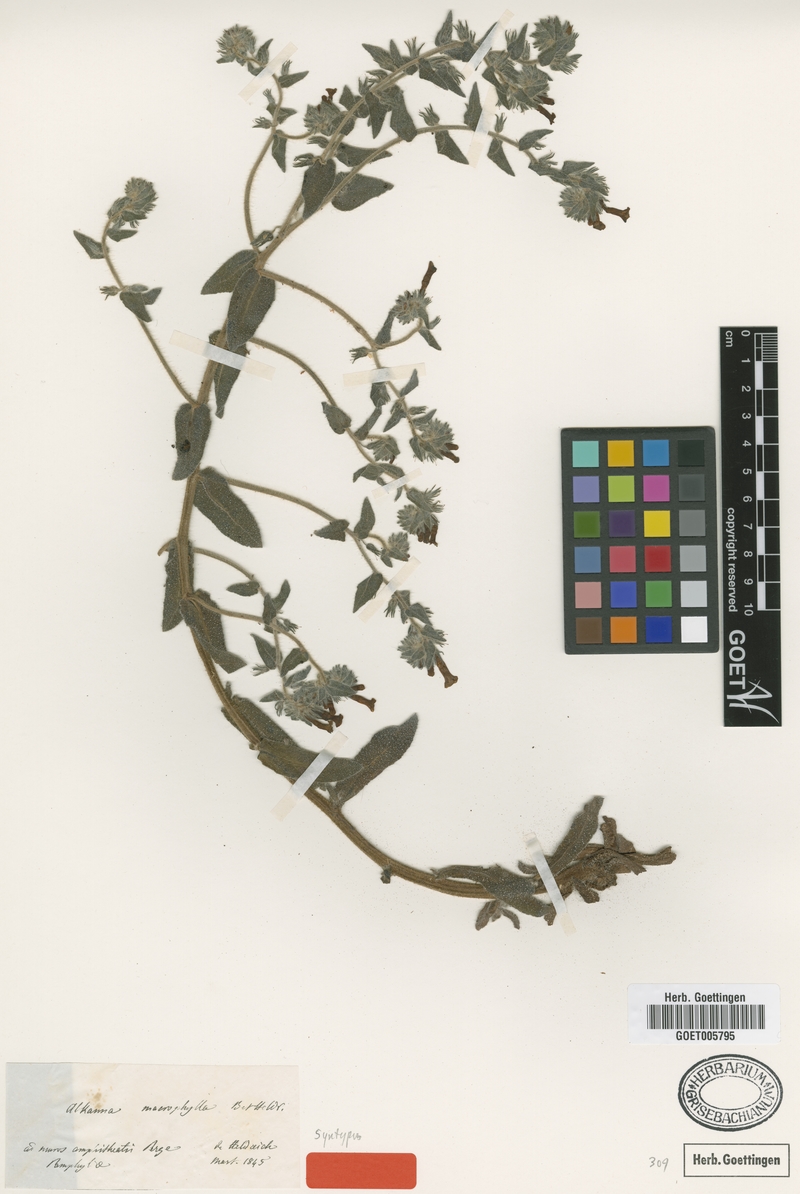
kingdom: Plantae
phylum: Tracheophyta
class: Magnoliopsida
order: Boraginales
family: Boraginaceae
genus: Alkanna
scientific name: Alkanna macrophylla
